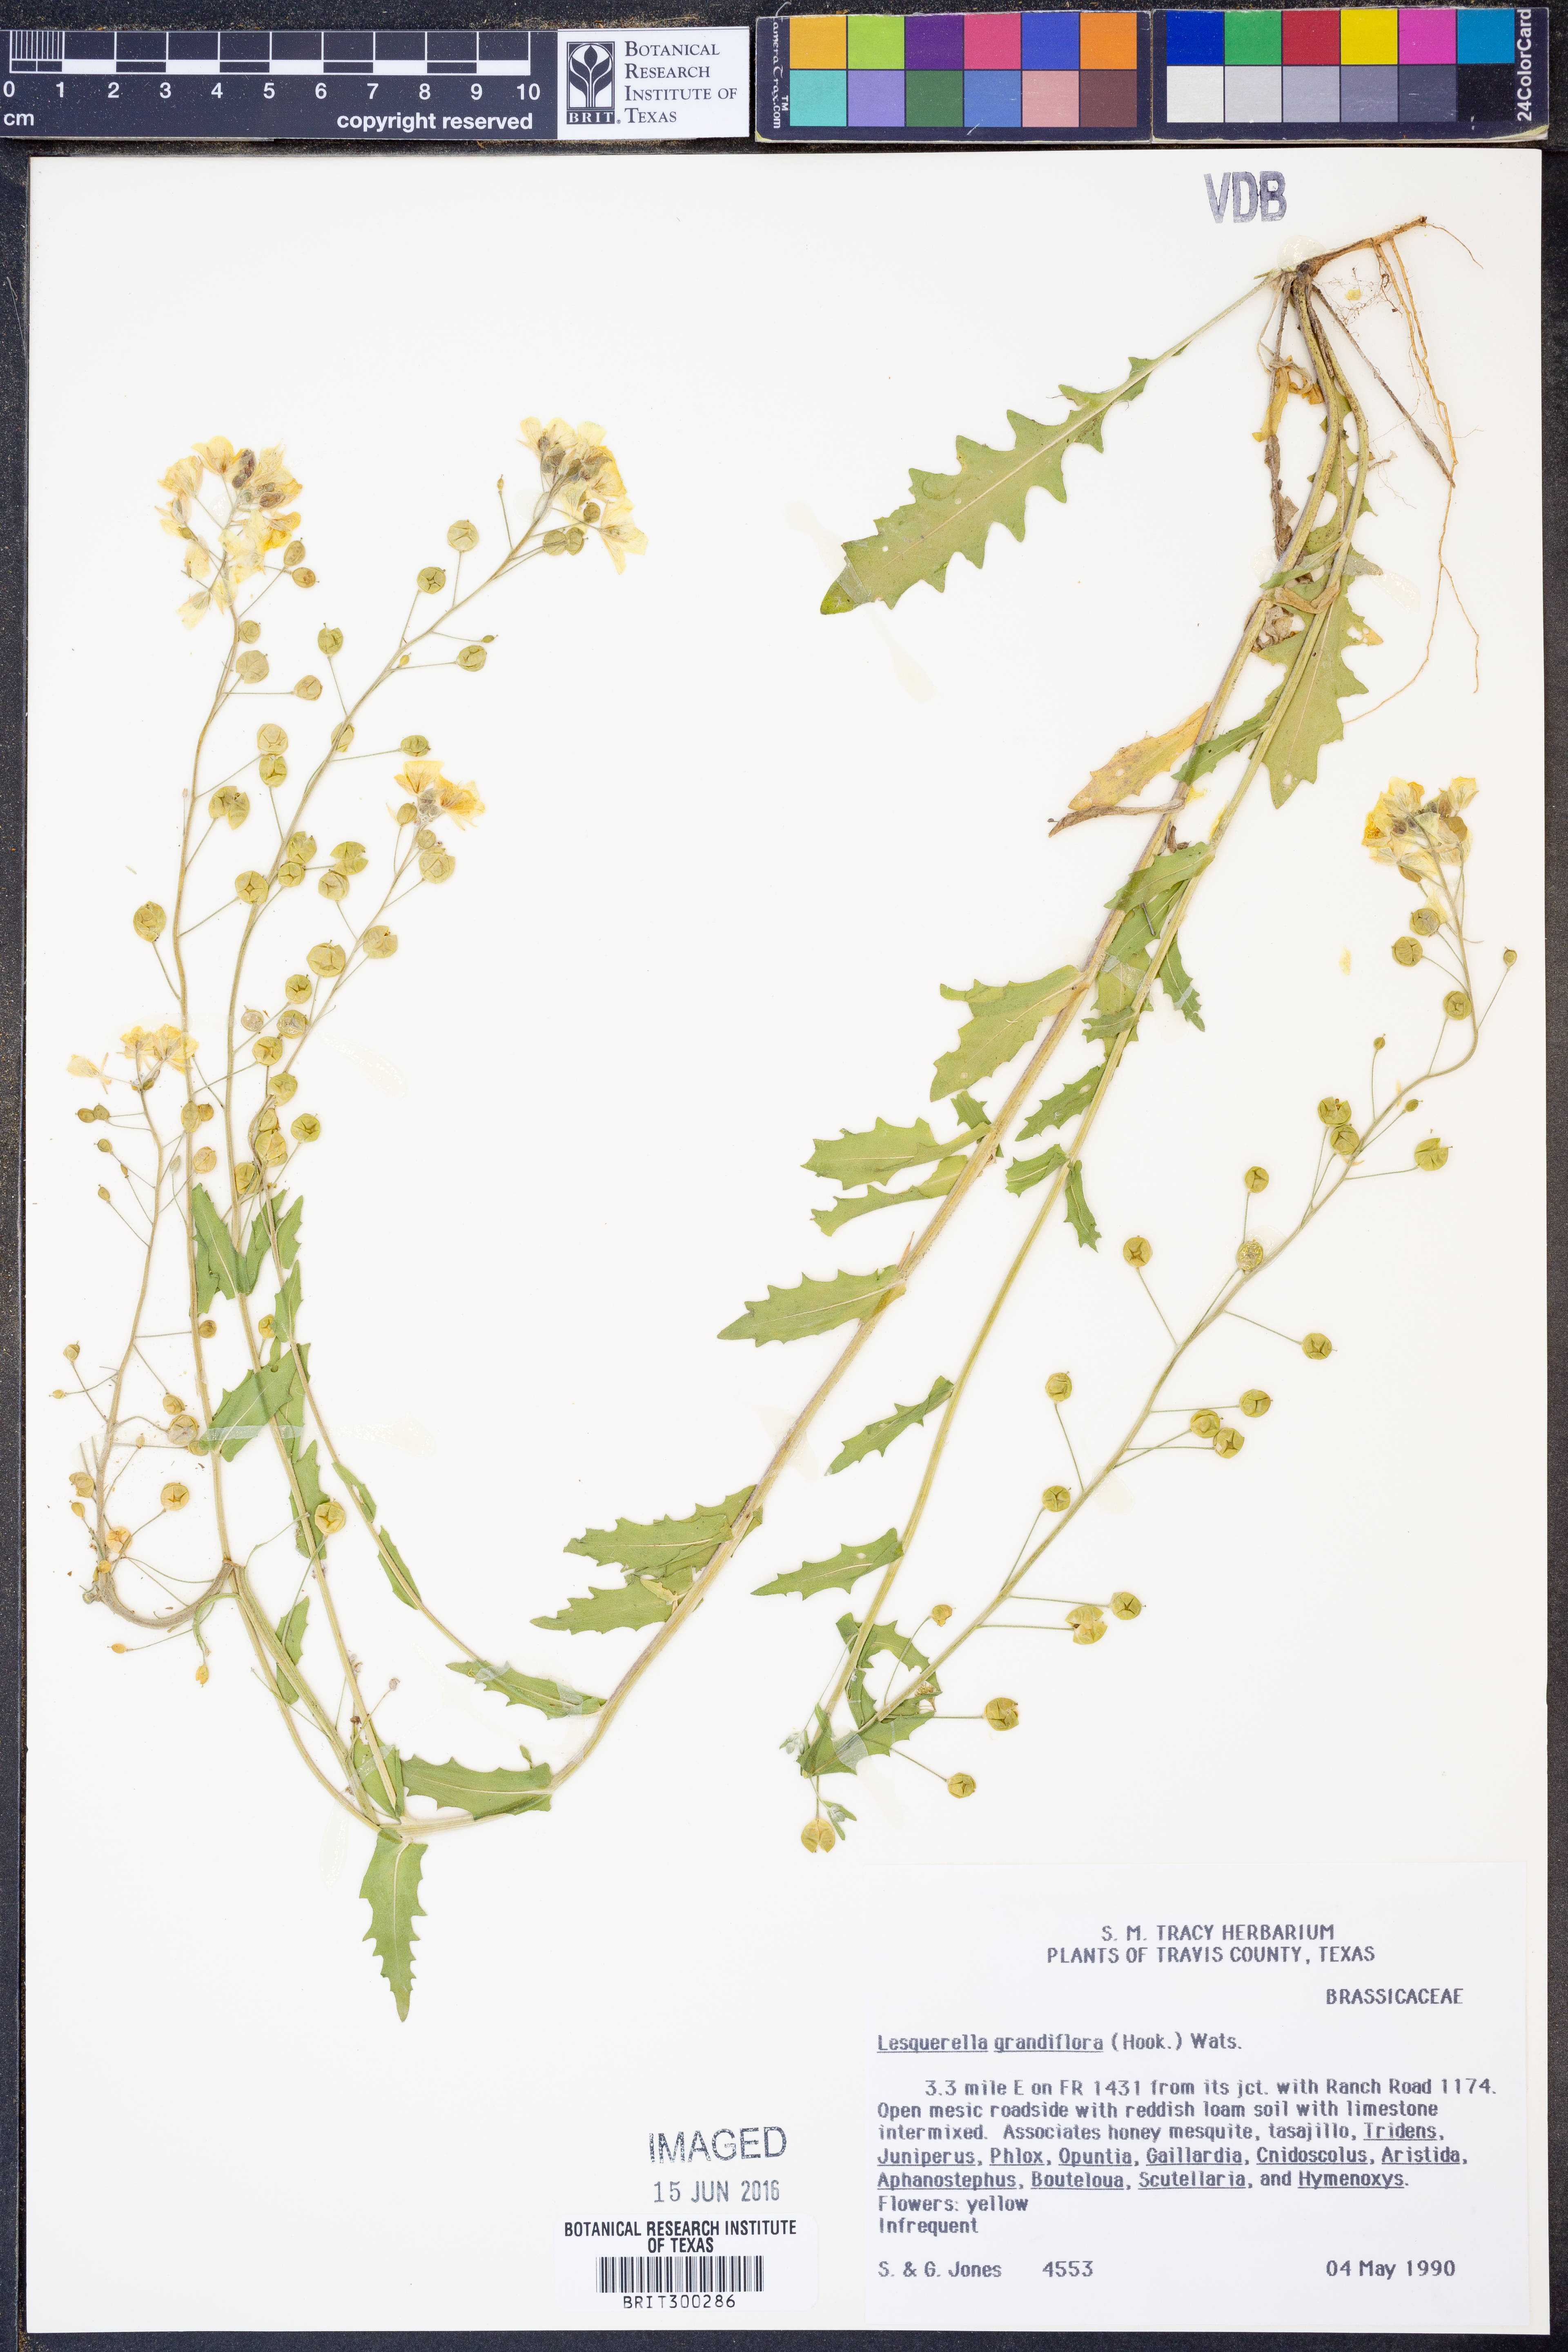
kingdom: Plantae
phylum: Tracheophyta
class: Magnoliopsida
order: Brassicales
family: Brassicaceae
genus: Paysonia
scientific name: Paysonia grandiflora
